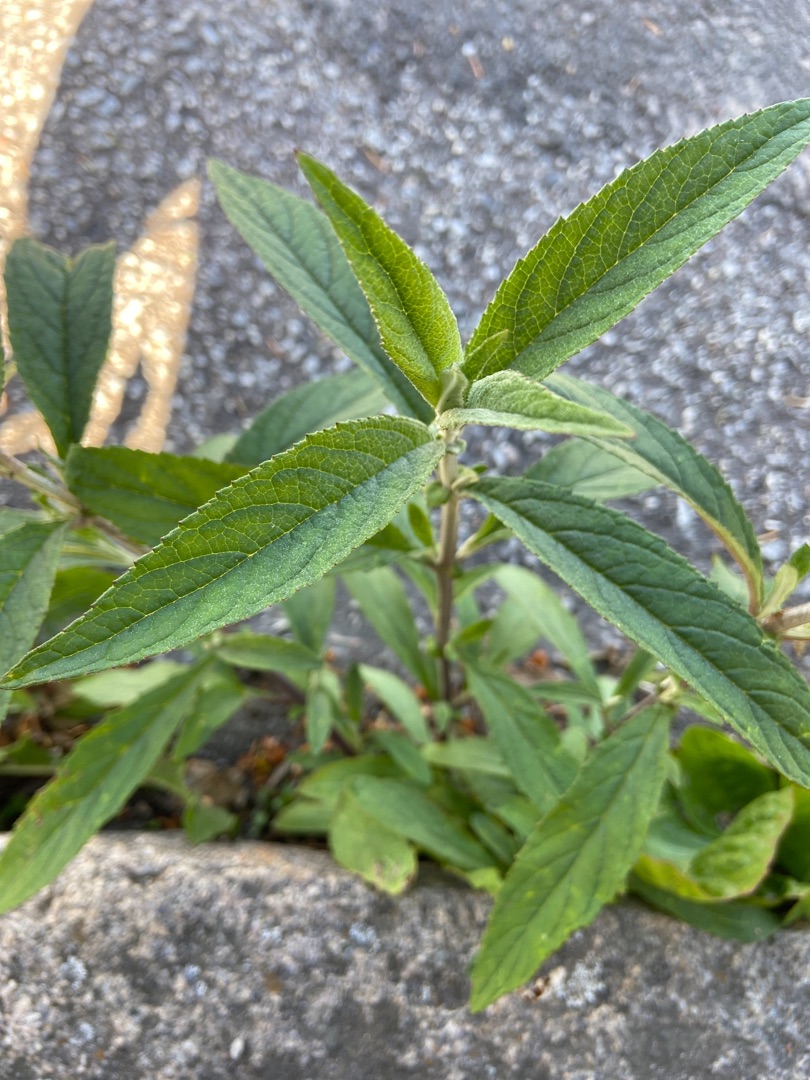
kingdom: Plantae
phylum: Tracheophyta
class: Magnoliopsida
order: Lamiales
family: Scrophulariaceae
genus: Buddleja
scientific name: Buddleja davidii
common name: Sommerfuglebusk
